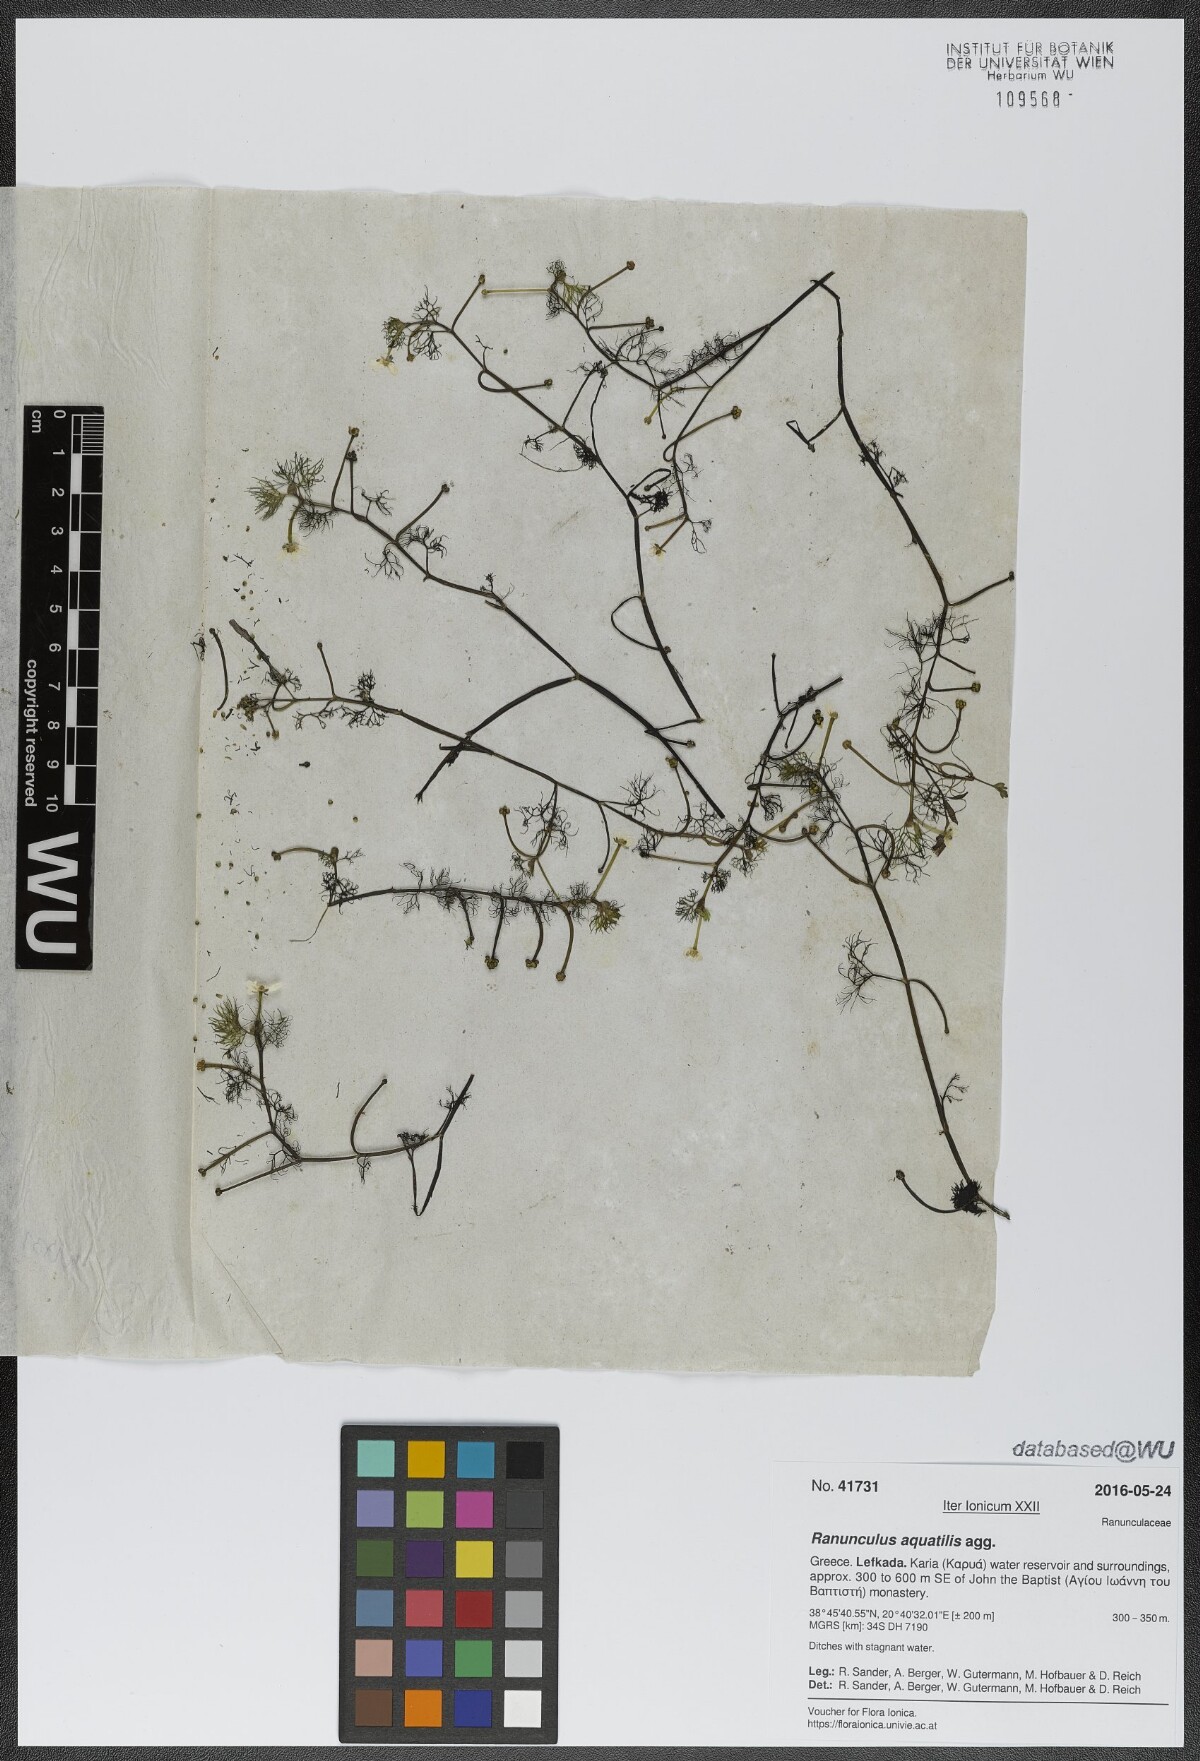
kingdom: Plantae
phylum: Tracheophyta
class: Magnoliopsida
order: Ranunculales
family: Ranunculaceae
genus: Ranunculus
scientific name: Ranunculus aquatilis
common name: Common water-crowfoot
